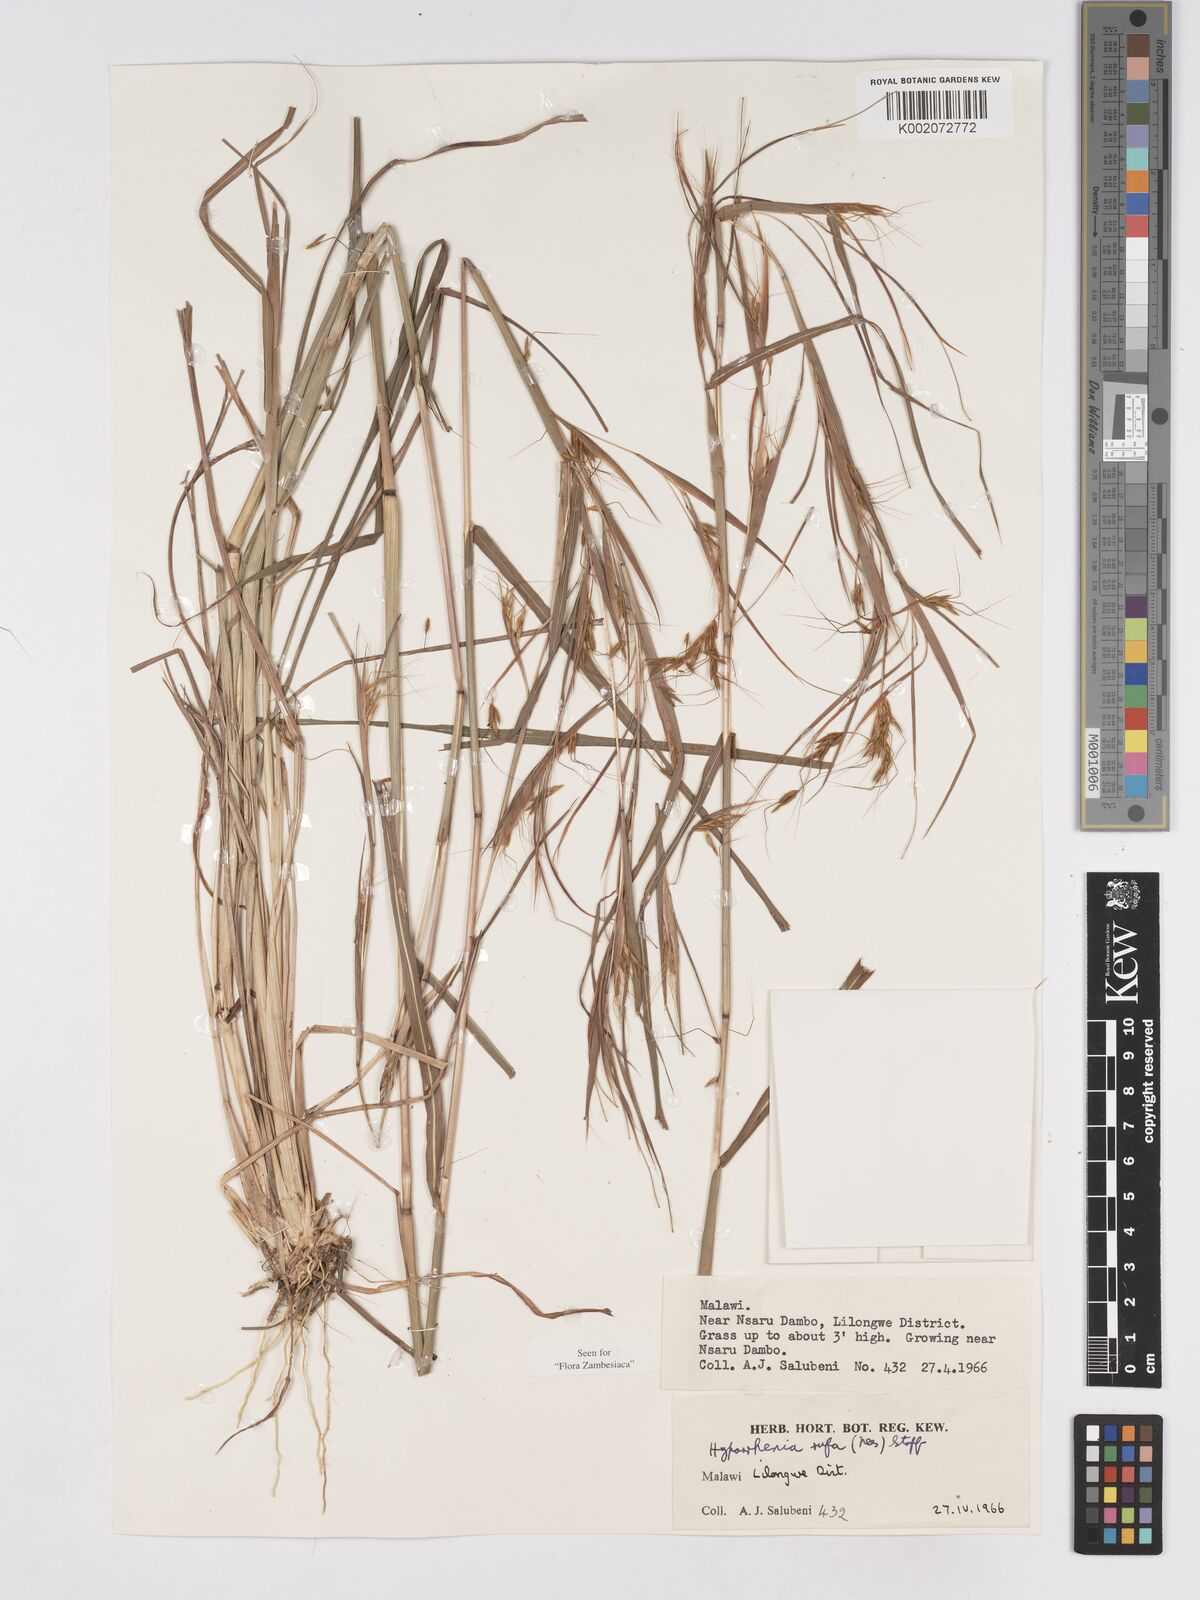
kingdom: Plantae
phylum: Tracheophyta
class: Liliopsida
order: Poales
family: Poaceae
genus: Hyparrhenia
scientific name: Hyparrhenia rufa
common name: Jaraguagrass
